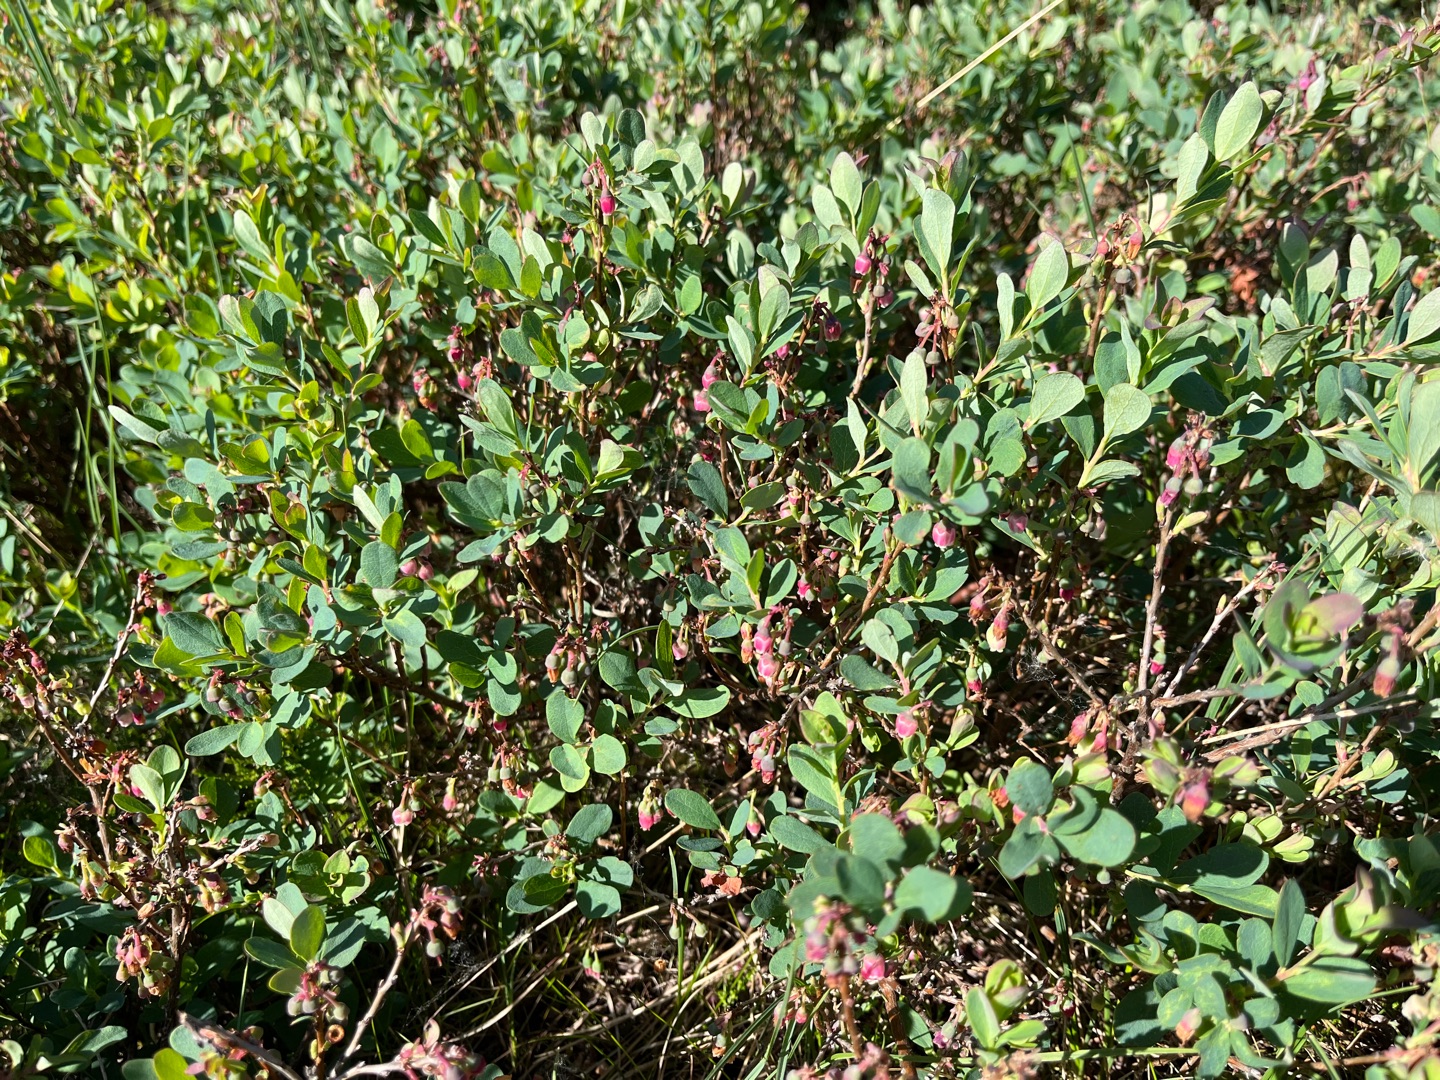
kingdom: Plantae
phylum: Tracheophyta
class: Magnoliopsida
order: Ericales
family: Ericaceae
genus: Vaccinium
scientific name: Vaccinium uliginosum
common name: Mose-bølle
